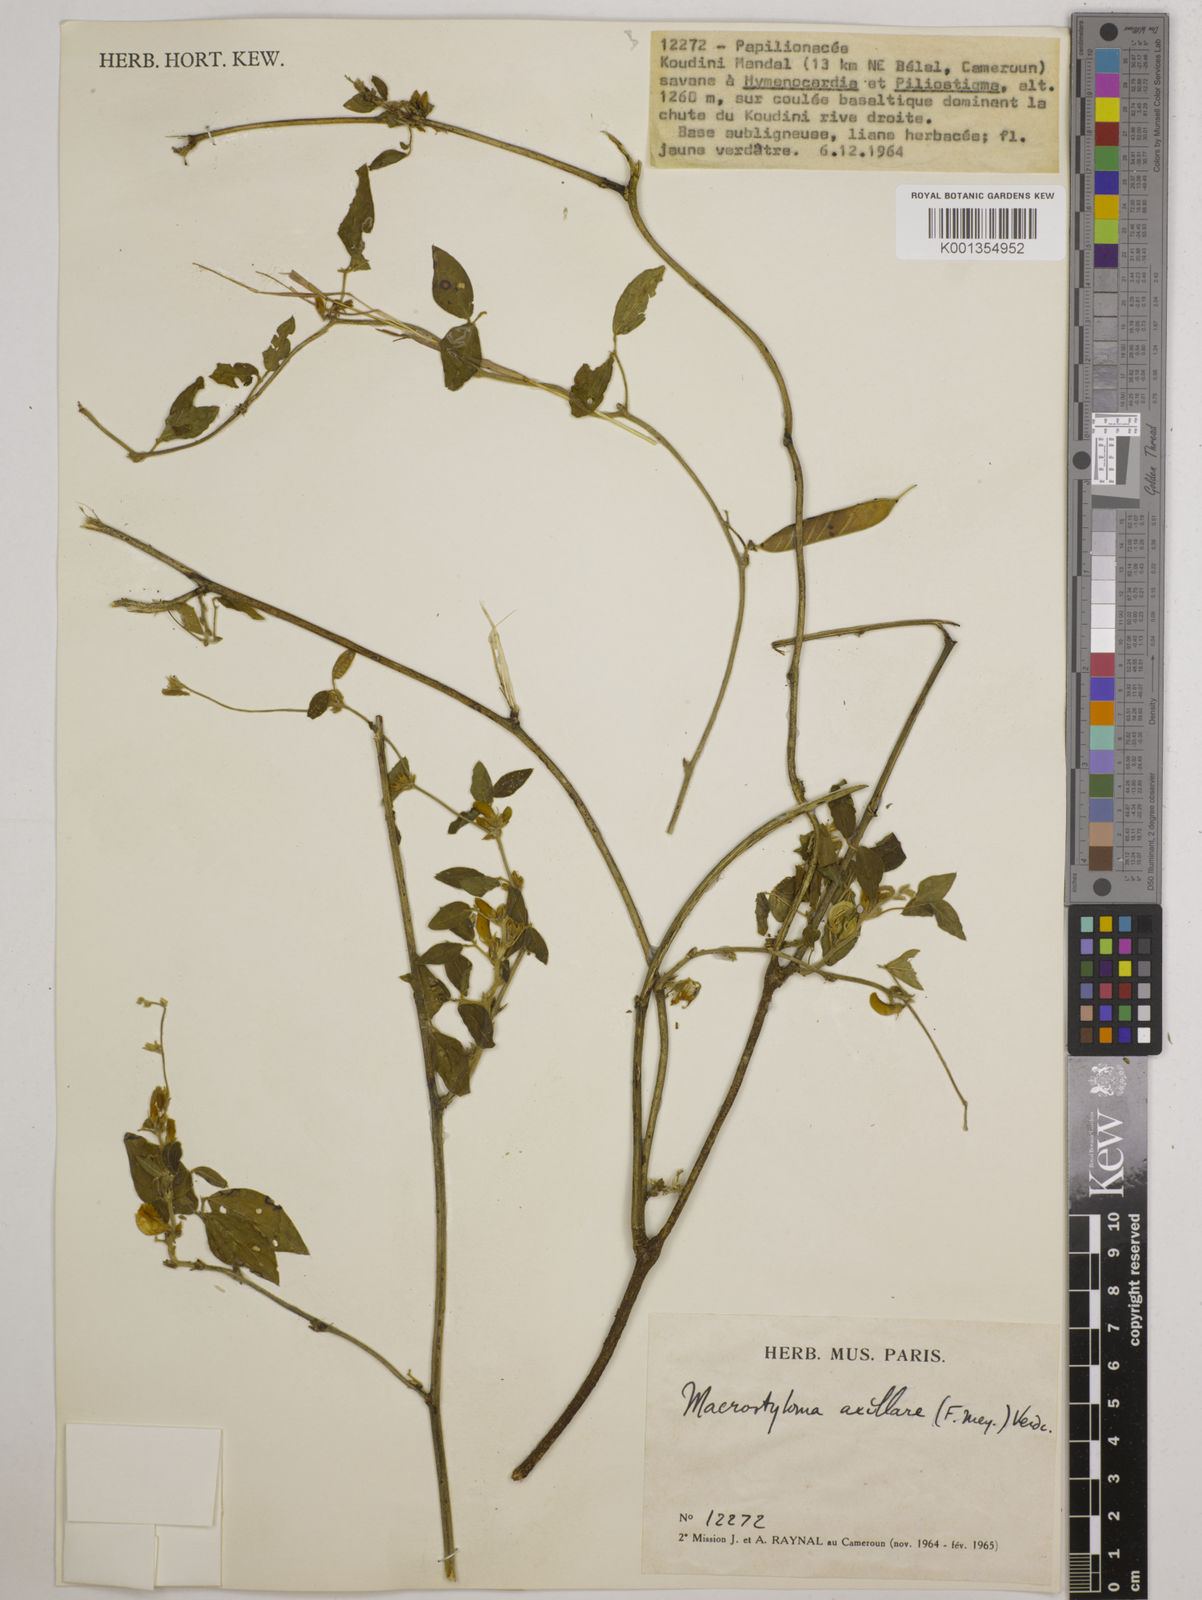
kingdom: Plantae
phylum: Tracheophyta
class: Magnoliopsida
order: Fabales
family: Fabaceae
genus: Macrotyloma
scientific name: Macrotyloma axillare
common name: Perennial horsegram
